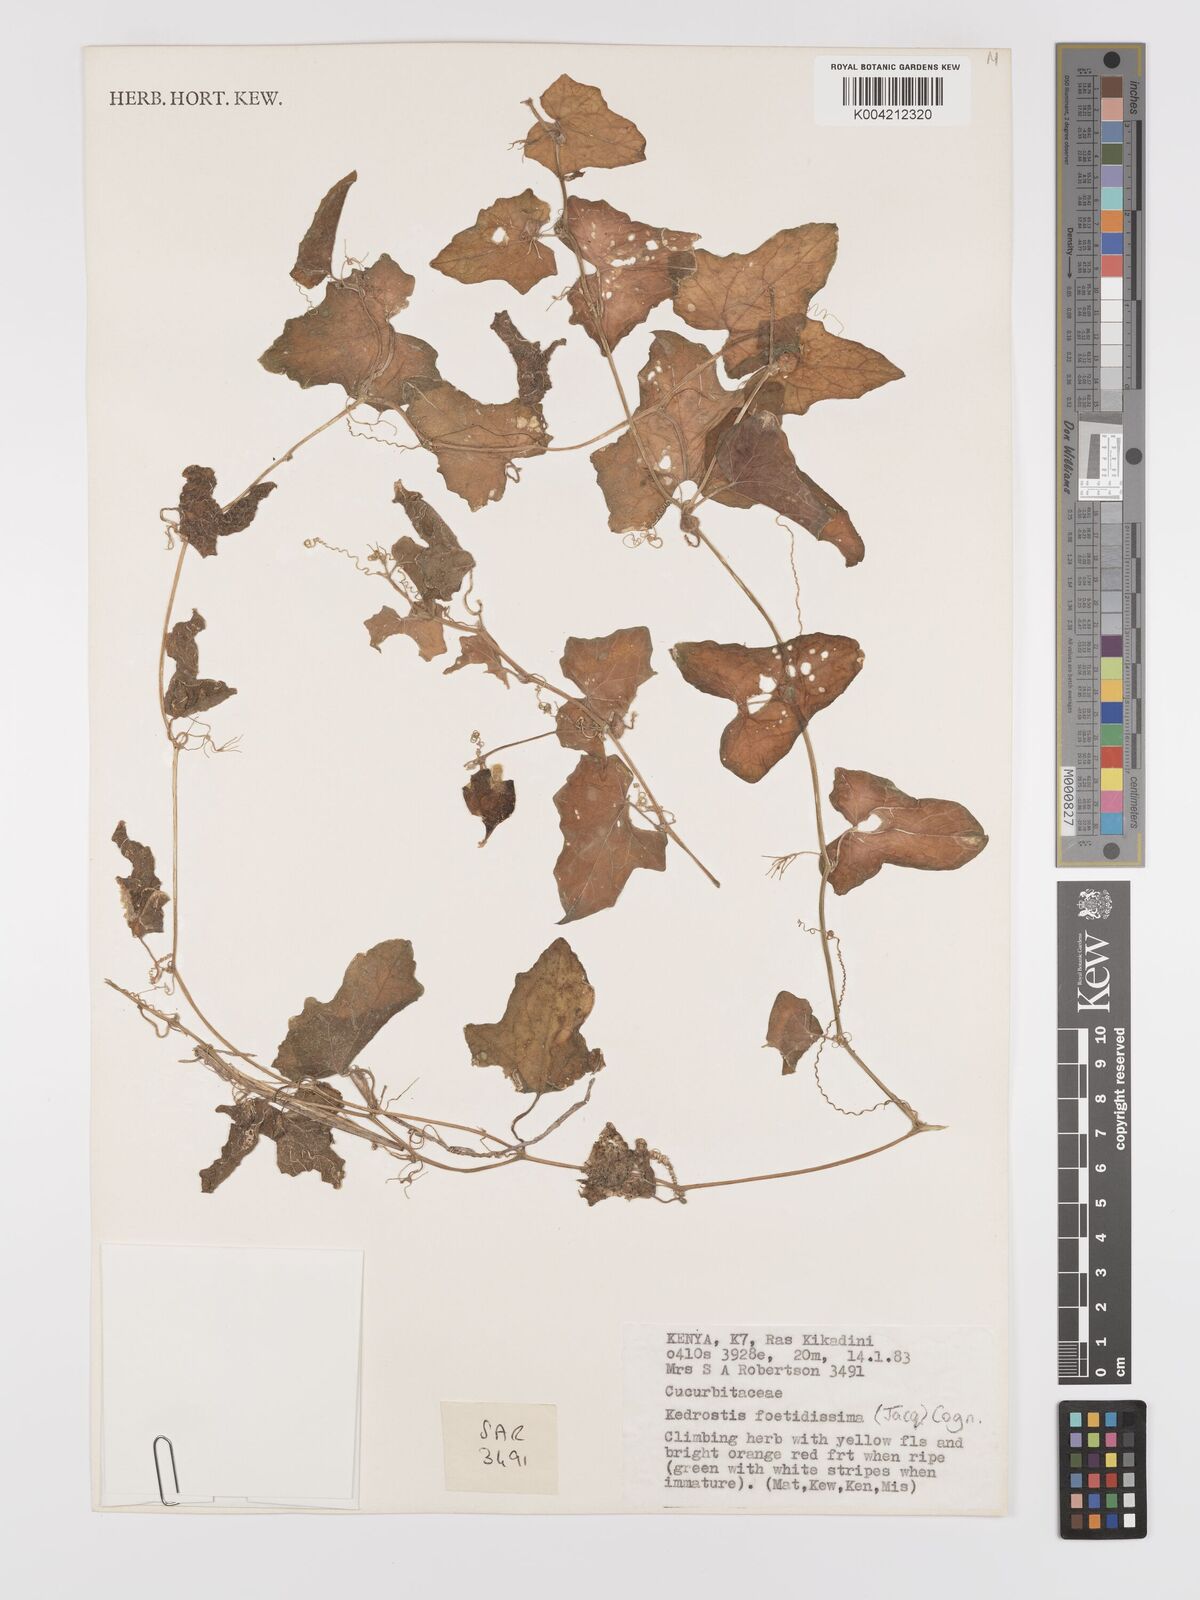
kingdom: Plantae
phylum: Tracheophyta
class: Magnoliopsida
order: Cucurbitales
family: Cucurbitaceae
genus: Kedrostis
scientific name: Kedrostis foetidissima
